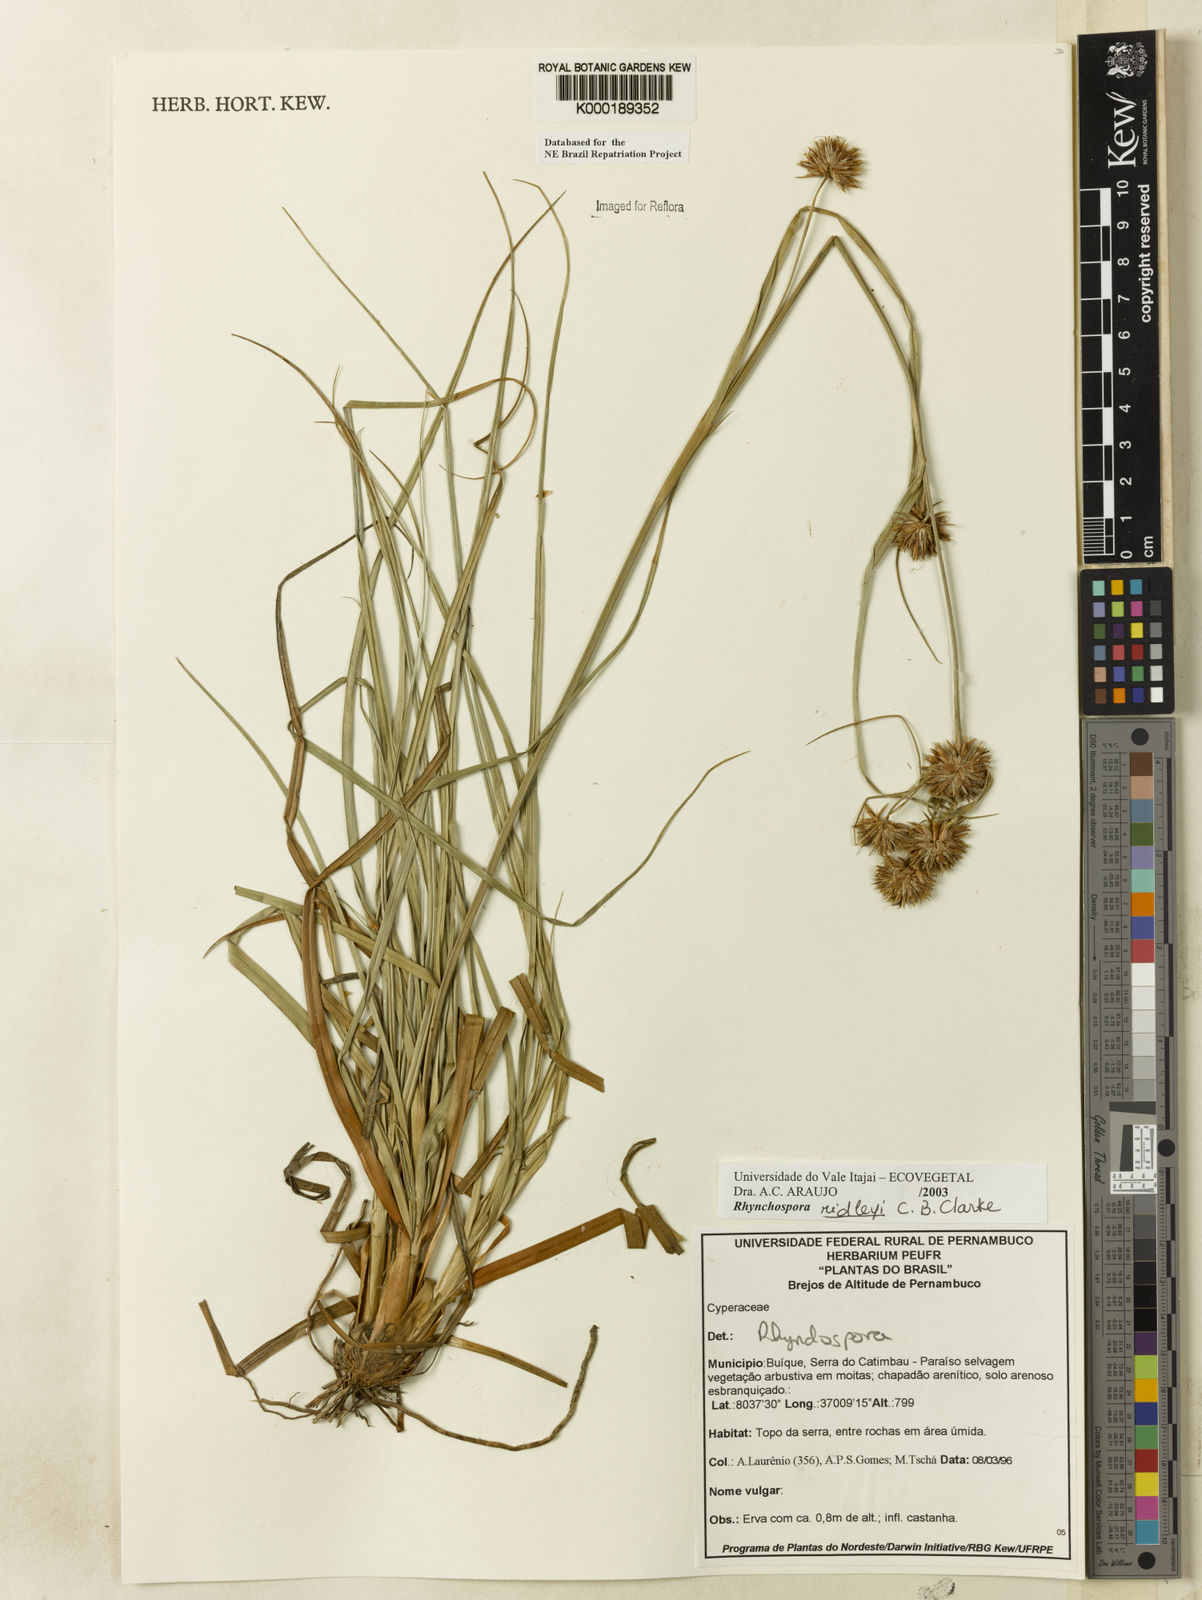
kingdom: Plantae
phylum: Tracheophyta
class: Liliopsida
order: Poales
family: Cyperaceae
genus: Rhynchospora
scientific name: Rhynchospora
